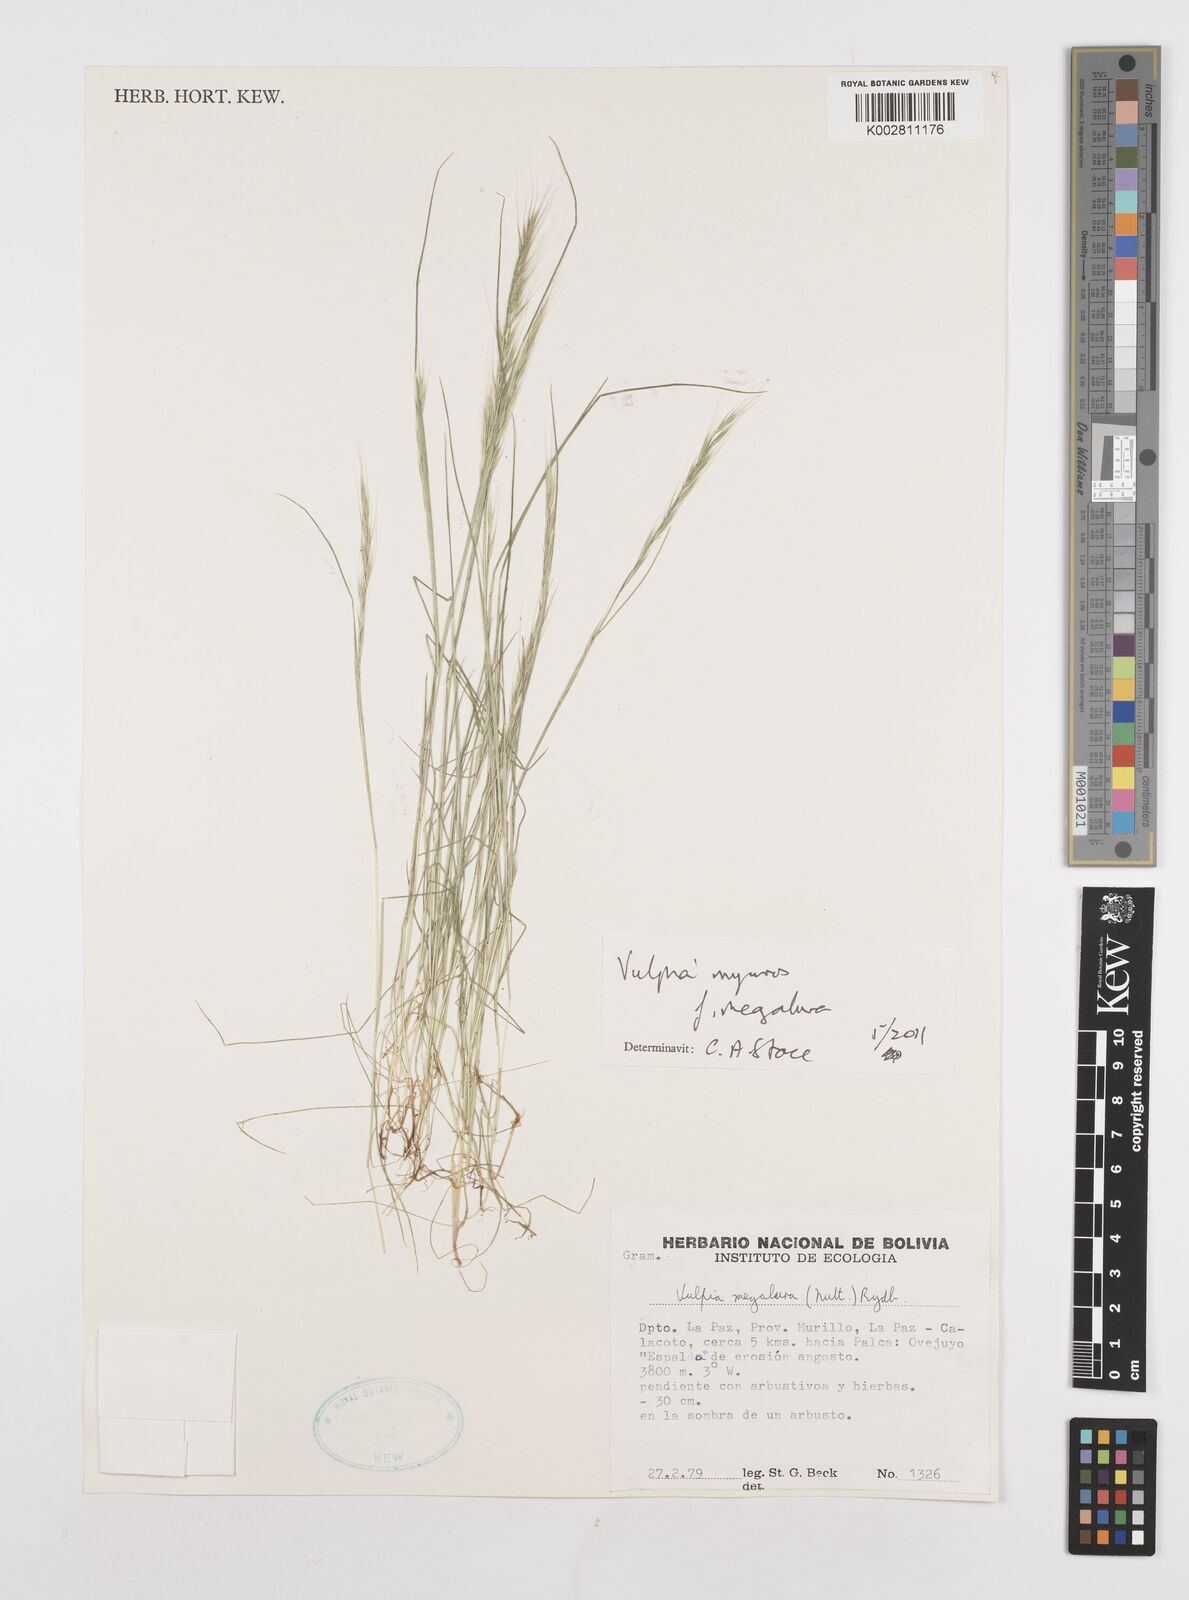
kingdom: Plantae
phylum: Tracheophyta
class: Liliopsida
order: Poales
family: Poaceae
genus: Festuca
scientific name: Festuca myuros
